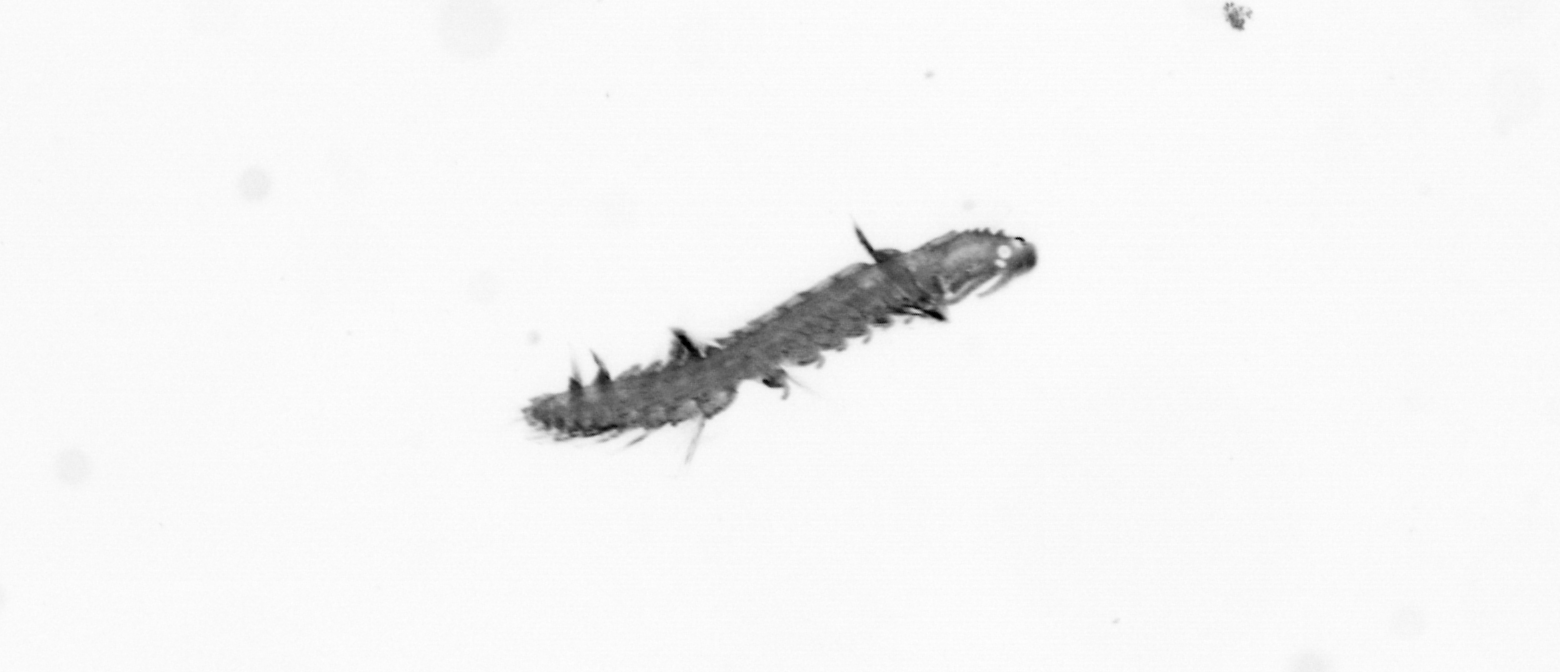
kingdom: Animalia
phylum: Annelida
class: Polychaeta
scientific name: Polychaeta
